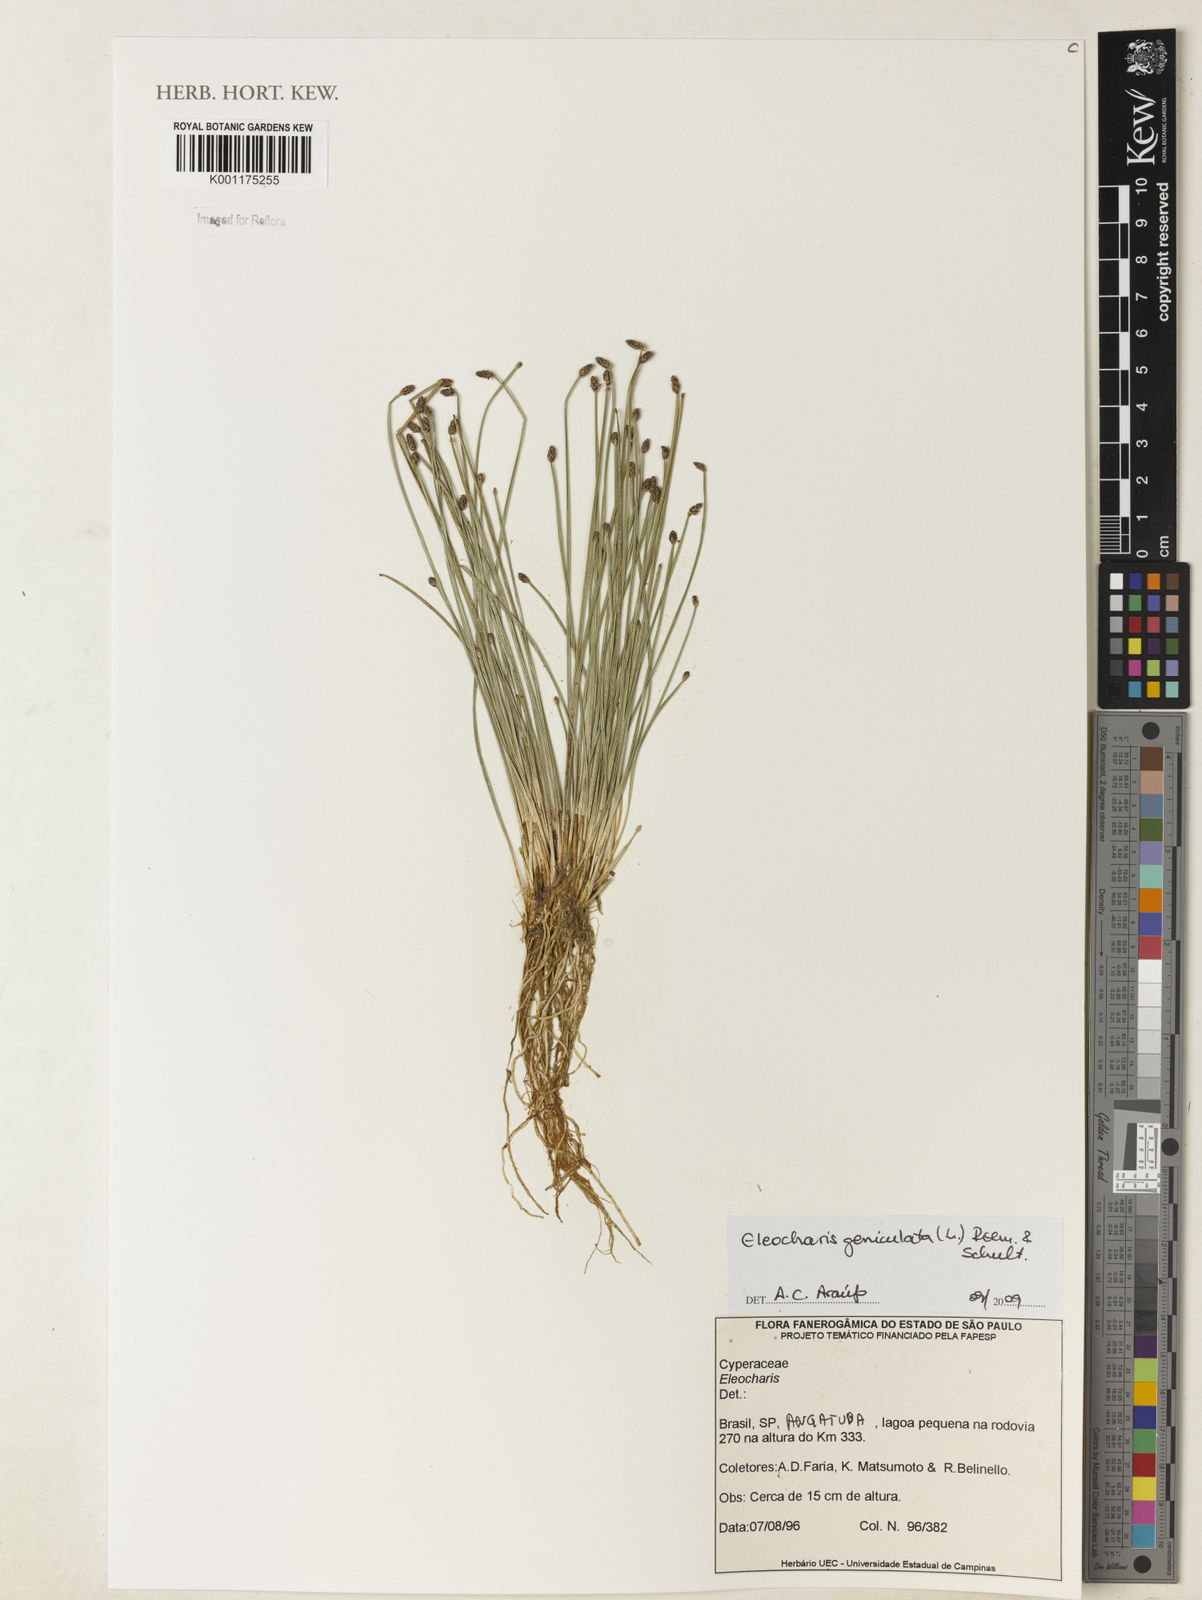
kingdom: Plantae
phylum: Tracheophyta
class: Liliopsida
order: Poales
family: Cyperaceae
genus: Eleocharis
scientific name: Eleocharis geniculata
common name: Canada spikesedge
